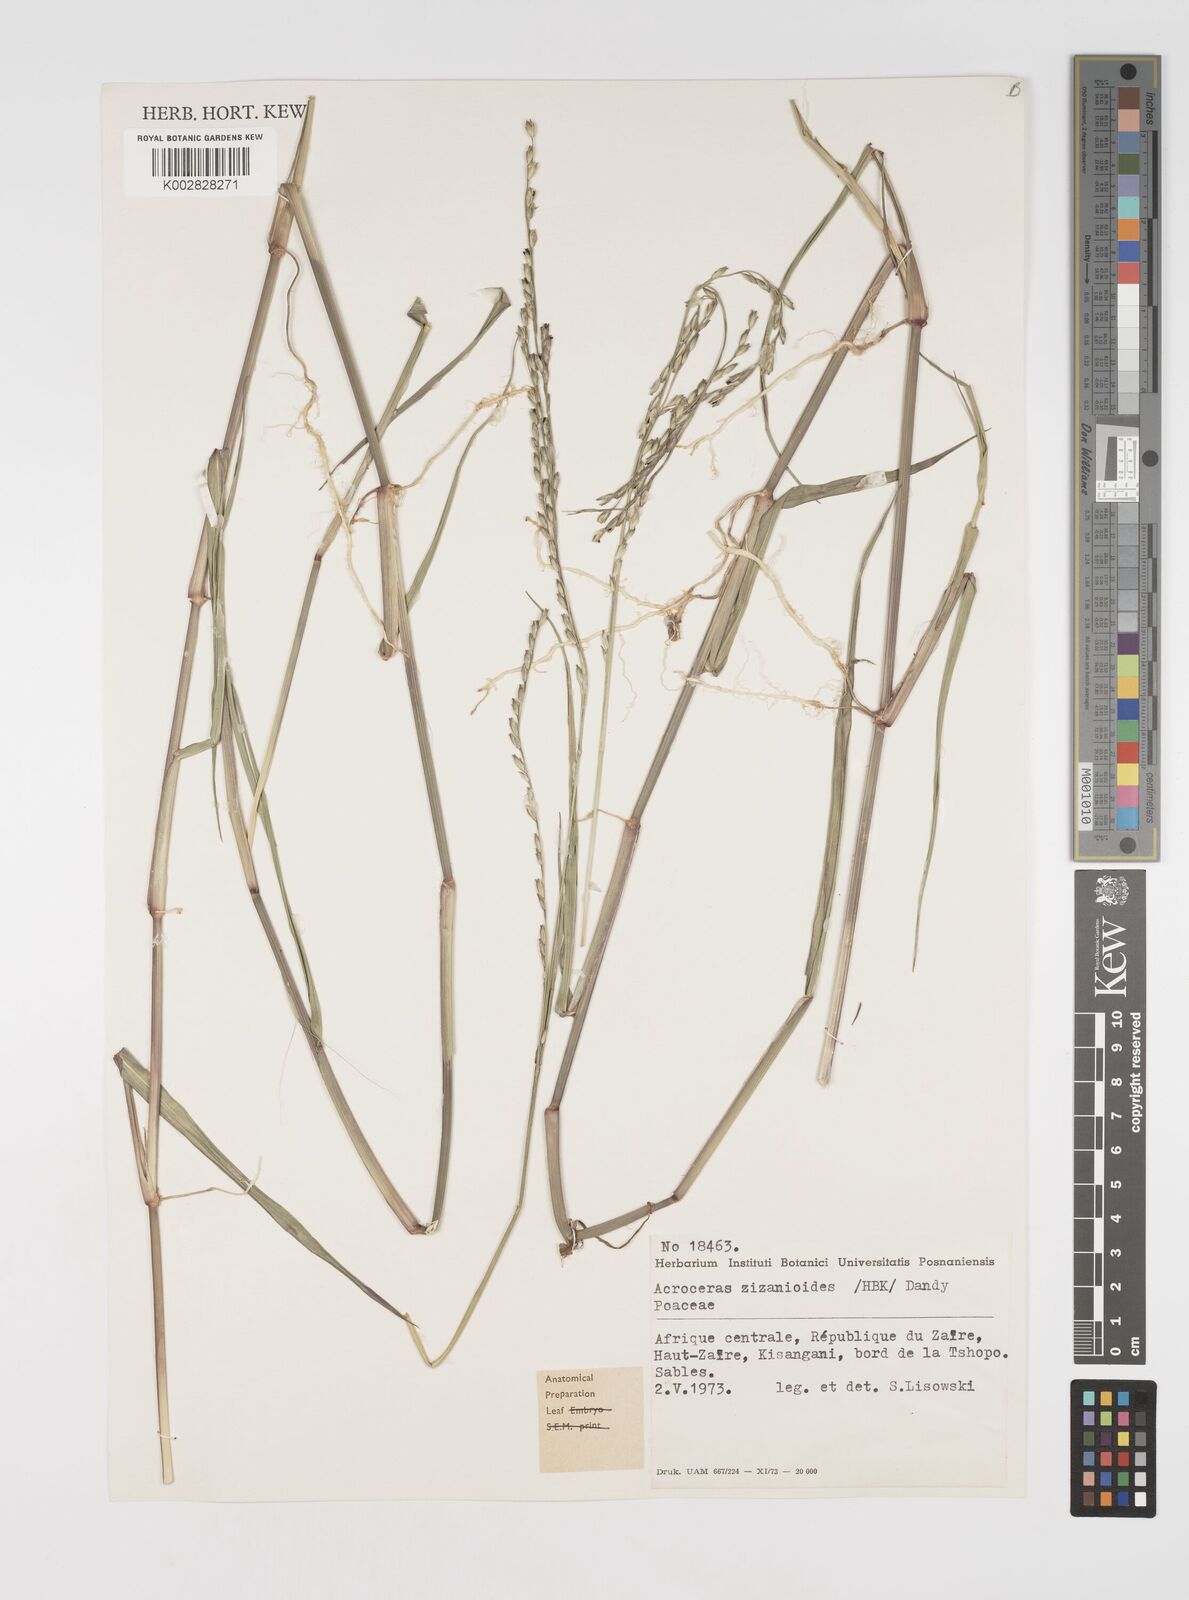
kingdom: Plantae
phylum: Tracheophyta
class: Liliopsida
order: Poales
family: Poaceae
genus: Acroceras
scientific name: Acroceras macrum
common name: Nyl grass
